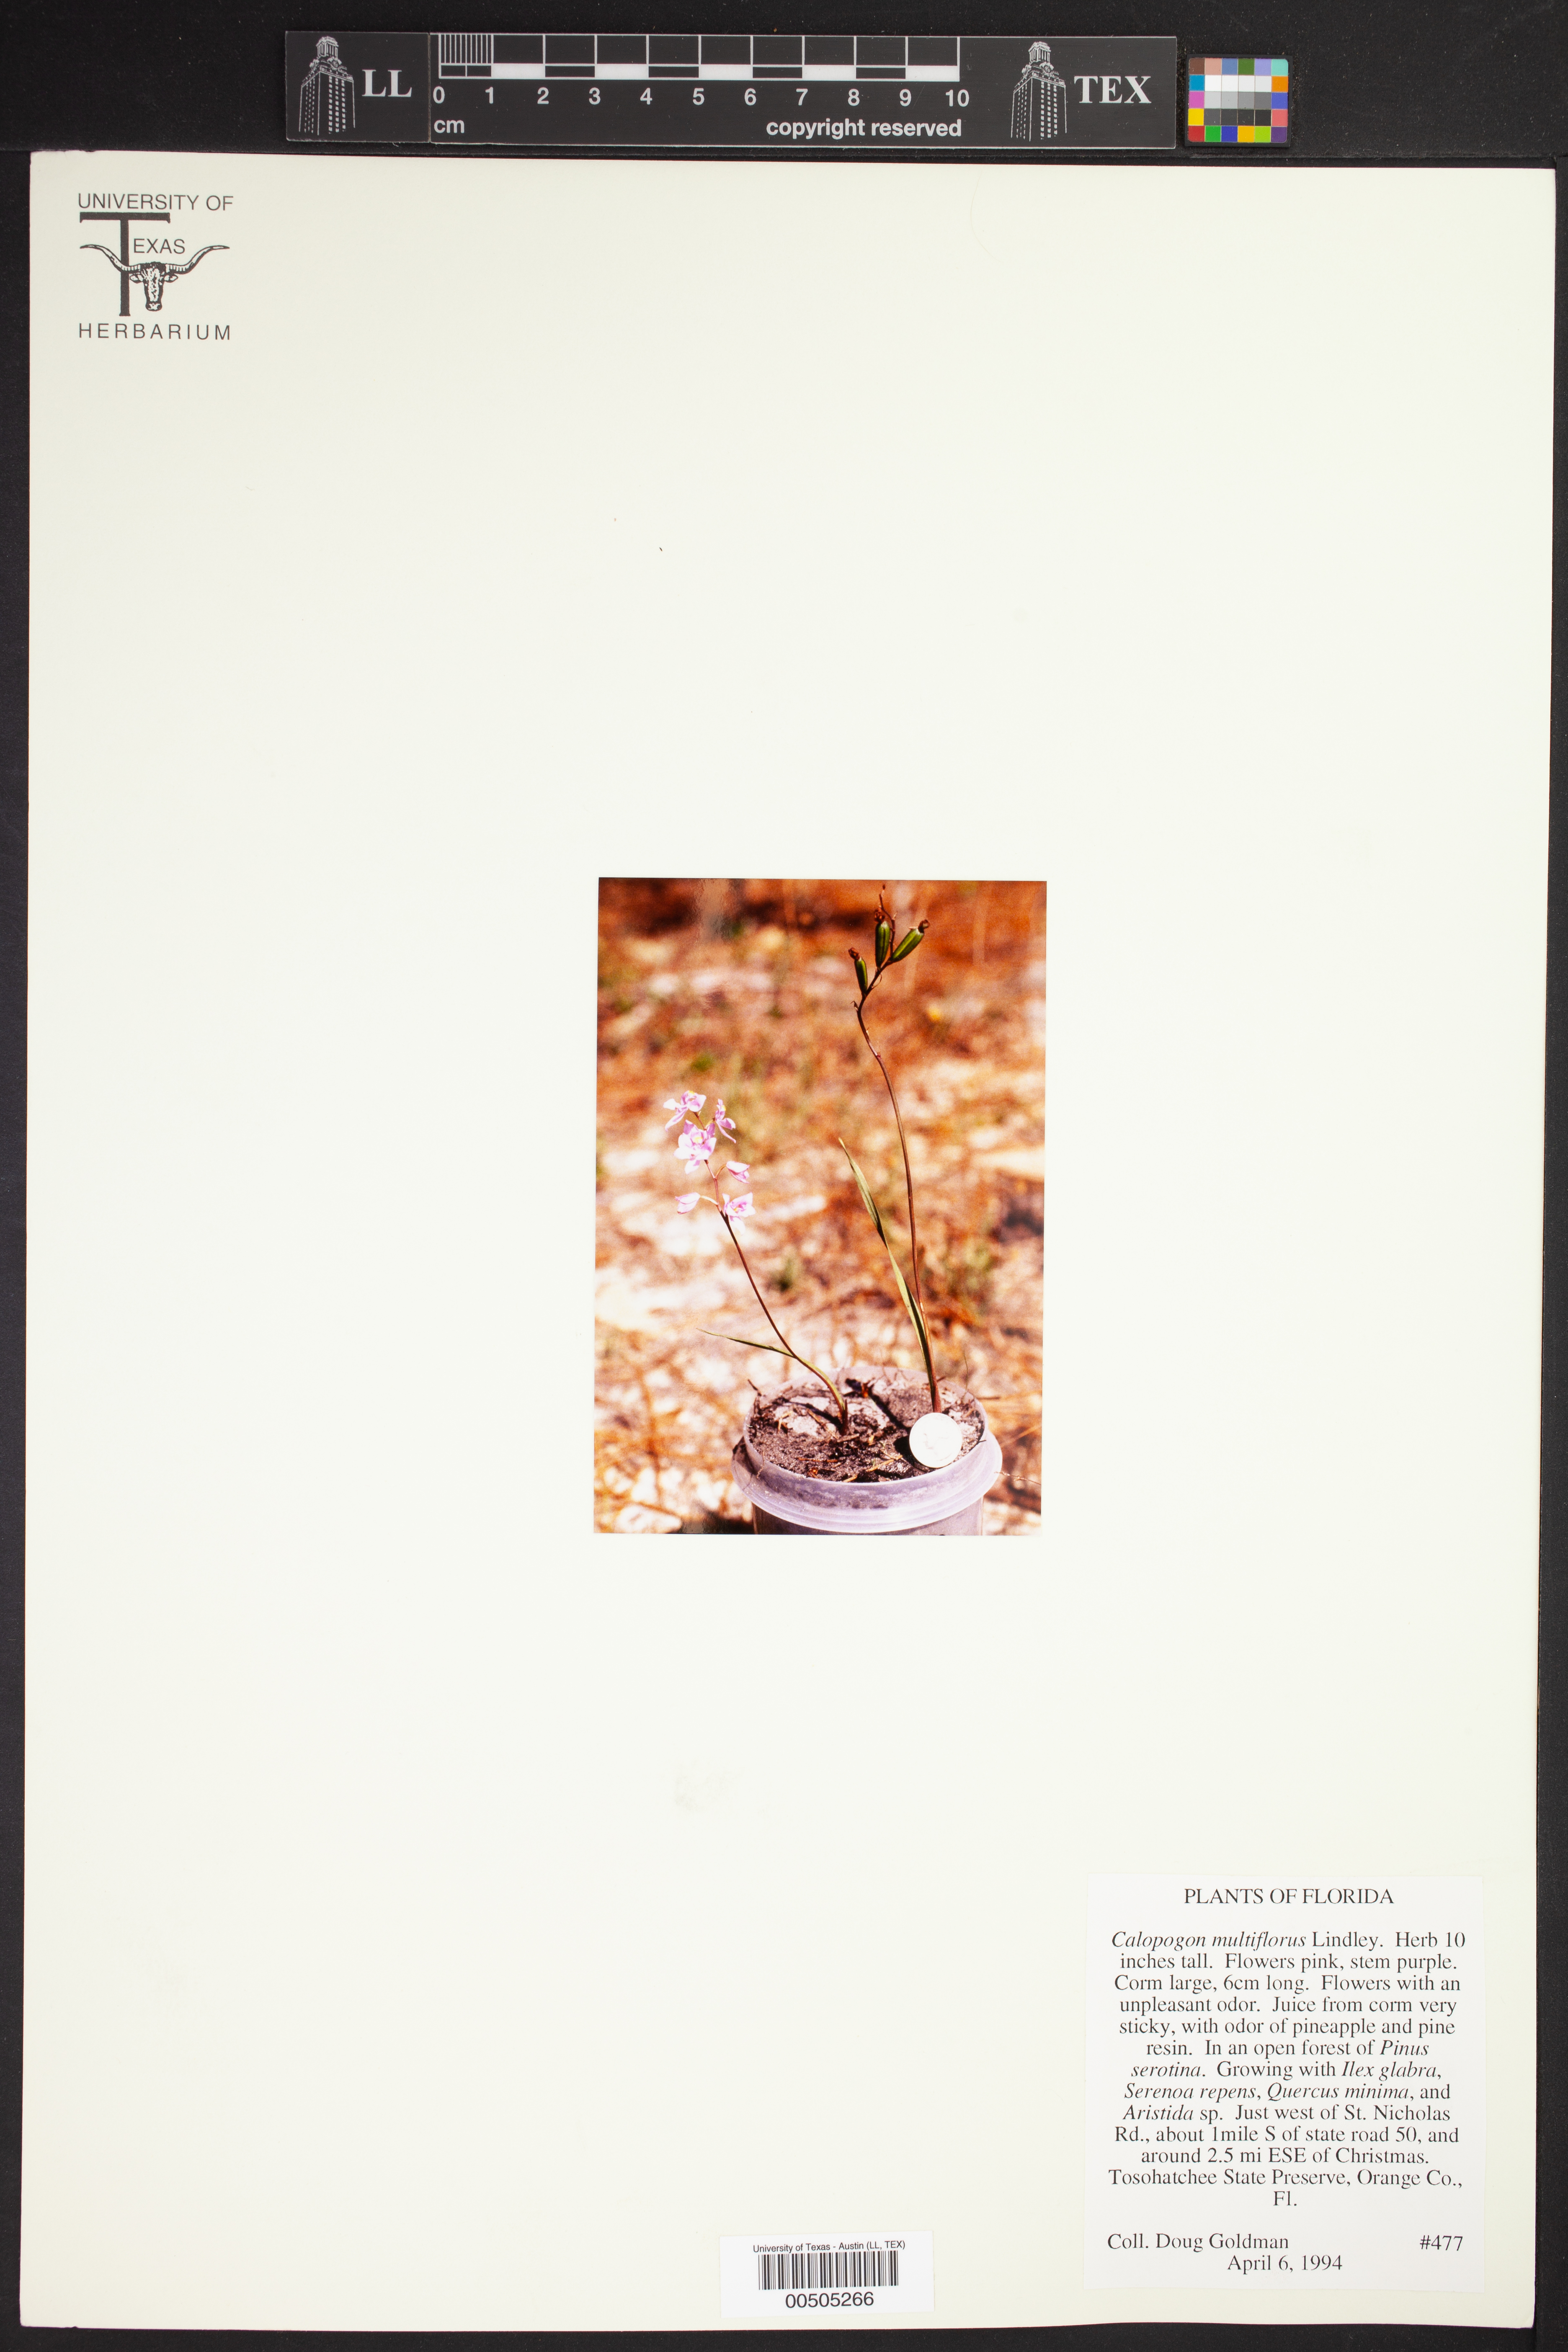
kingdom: Plantae
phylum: Tracheophyta
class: Liliopsida
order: Asparagales
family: Orchidaceae
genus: Calopogon
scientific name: Calopogon multiflorus
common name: Many-flowered grass-pink orchid
